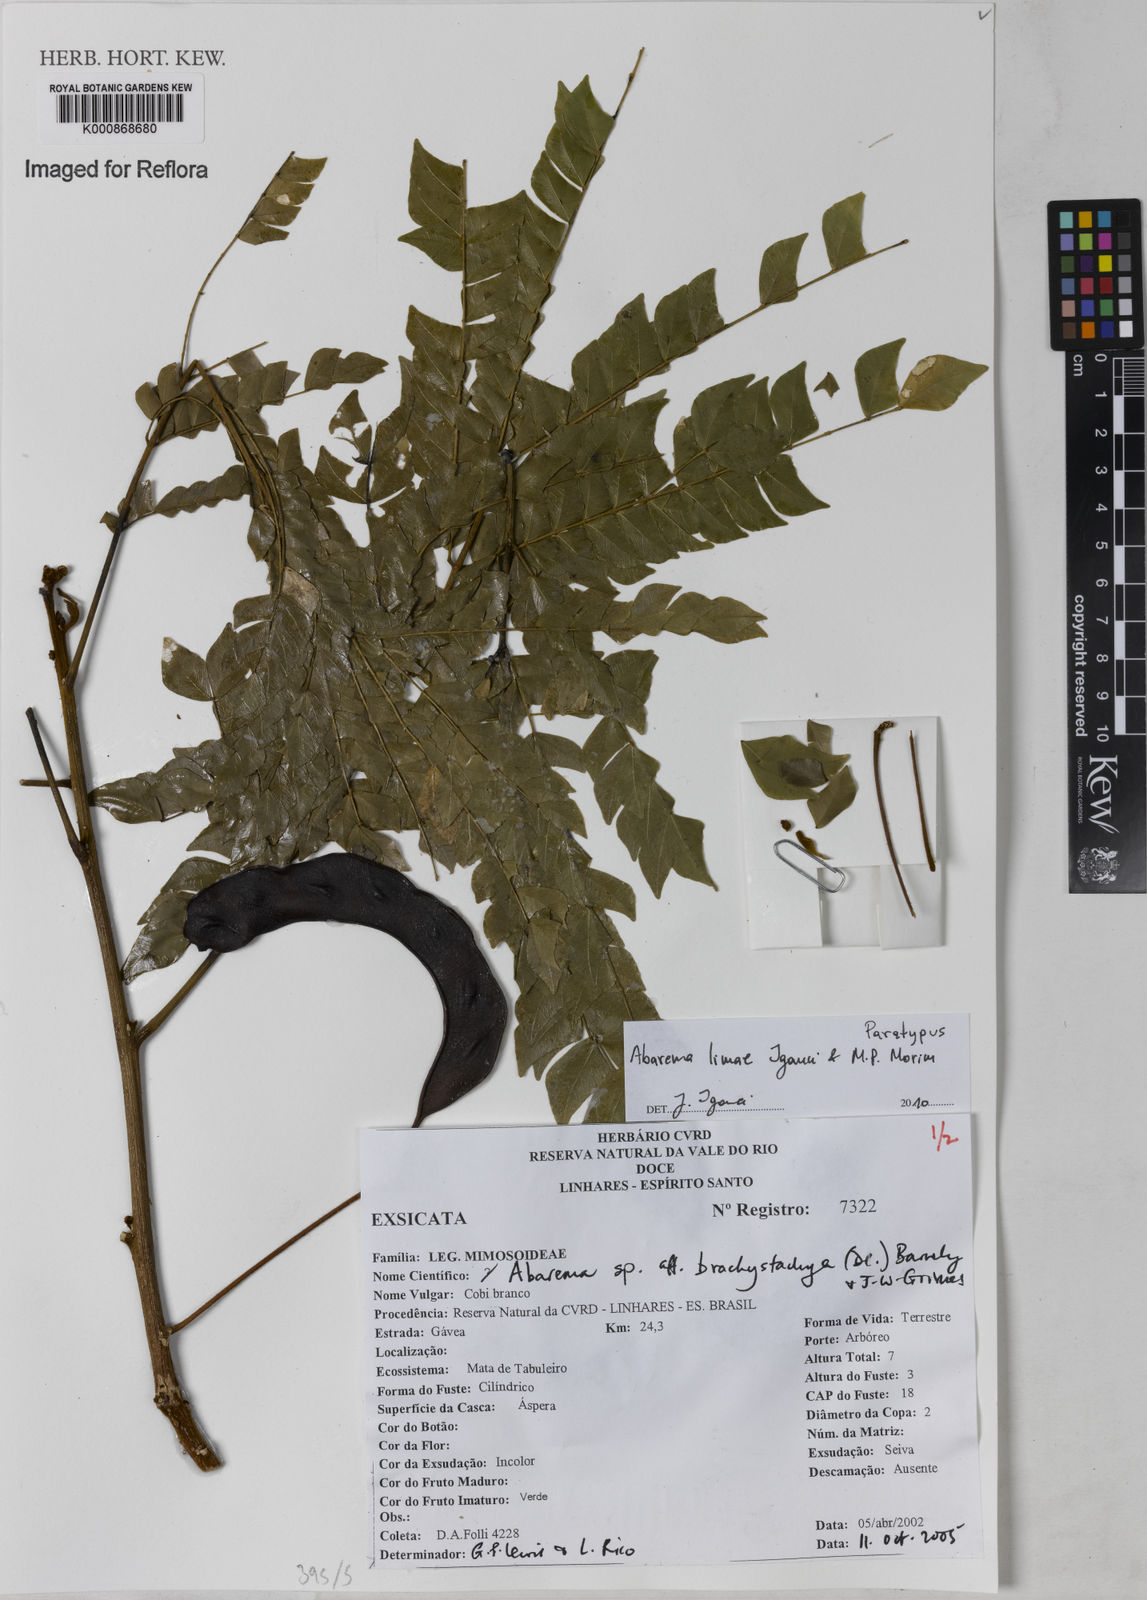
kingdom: Plantae
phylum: Tracheophyta
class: Magnoliopsida
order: Fabales
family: Fabaceae
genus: Jupunba
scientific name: Jupunba rhombea
